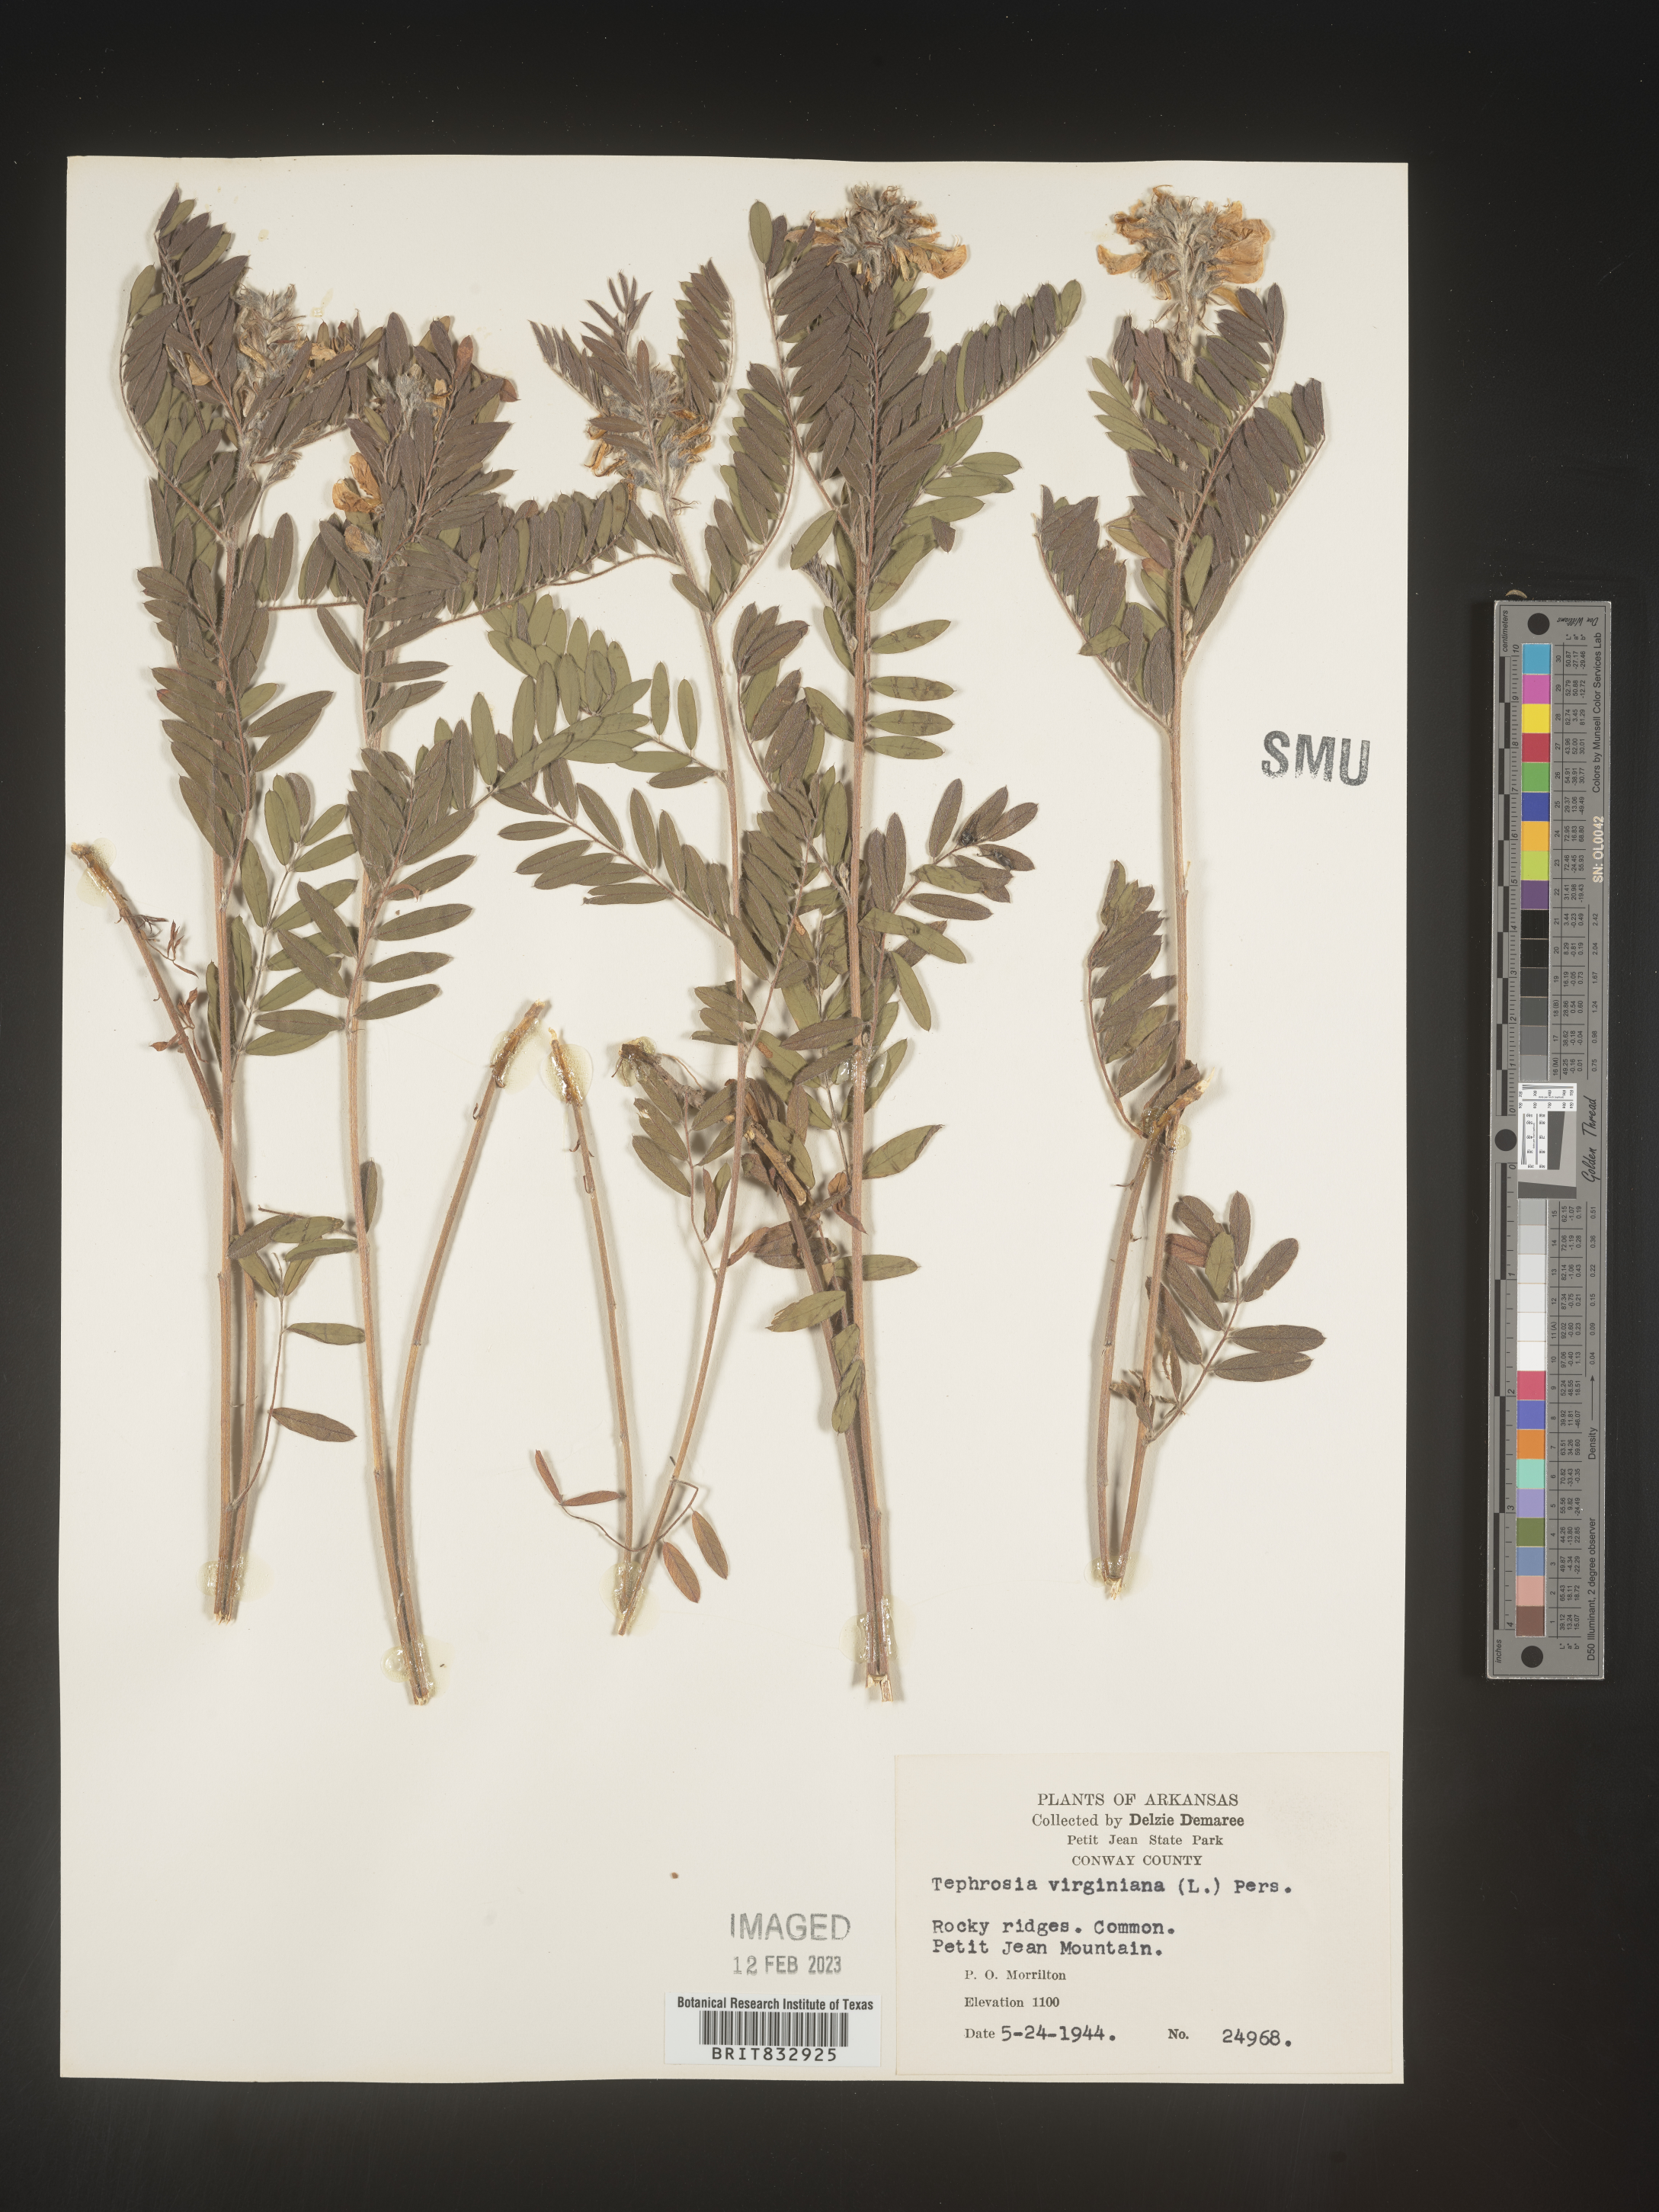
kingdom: Plantae
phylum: Tracheophyta
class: Magnoliopsida
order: Fabales
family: Fabaceae
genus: Tephrosia
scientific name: Tephrosia virginiana
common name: Rabbit-pea
